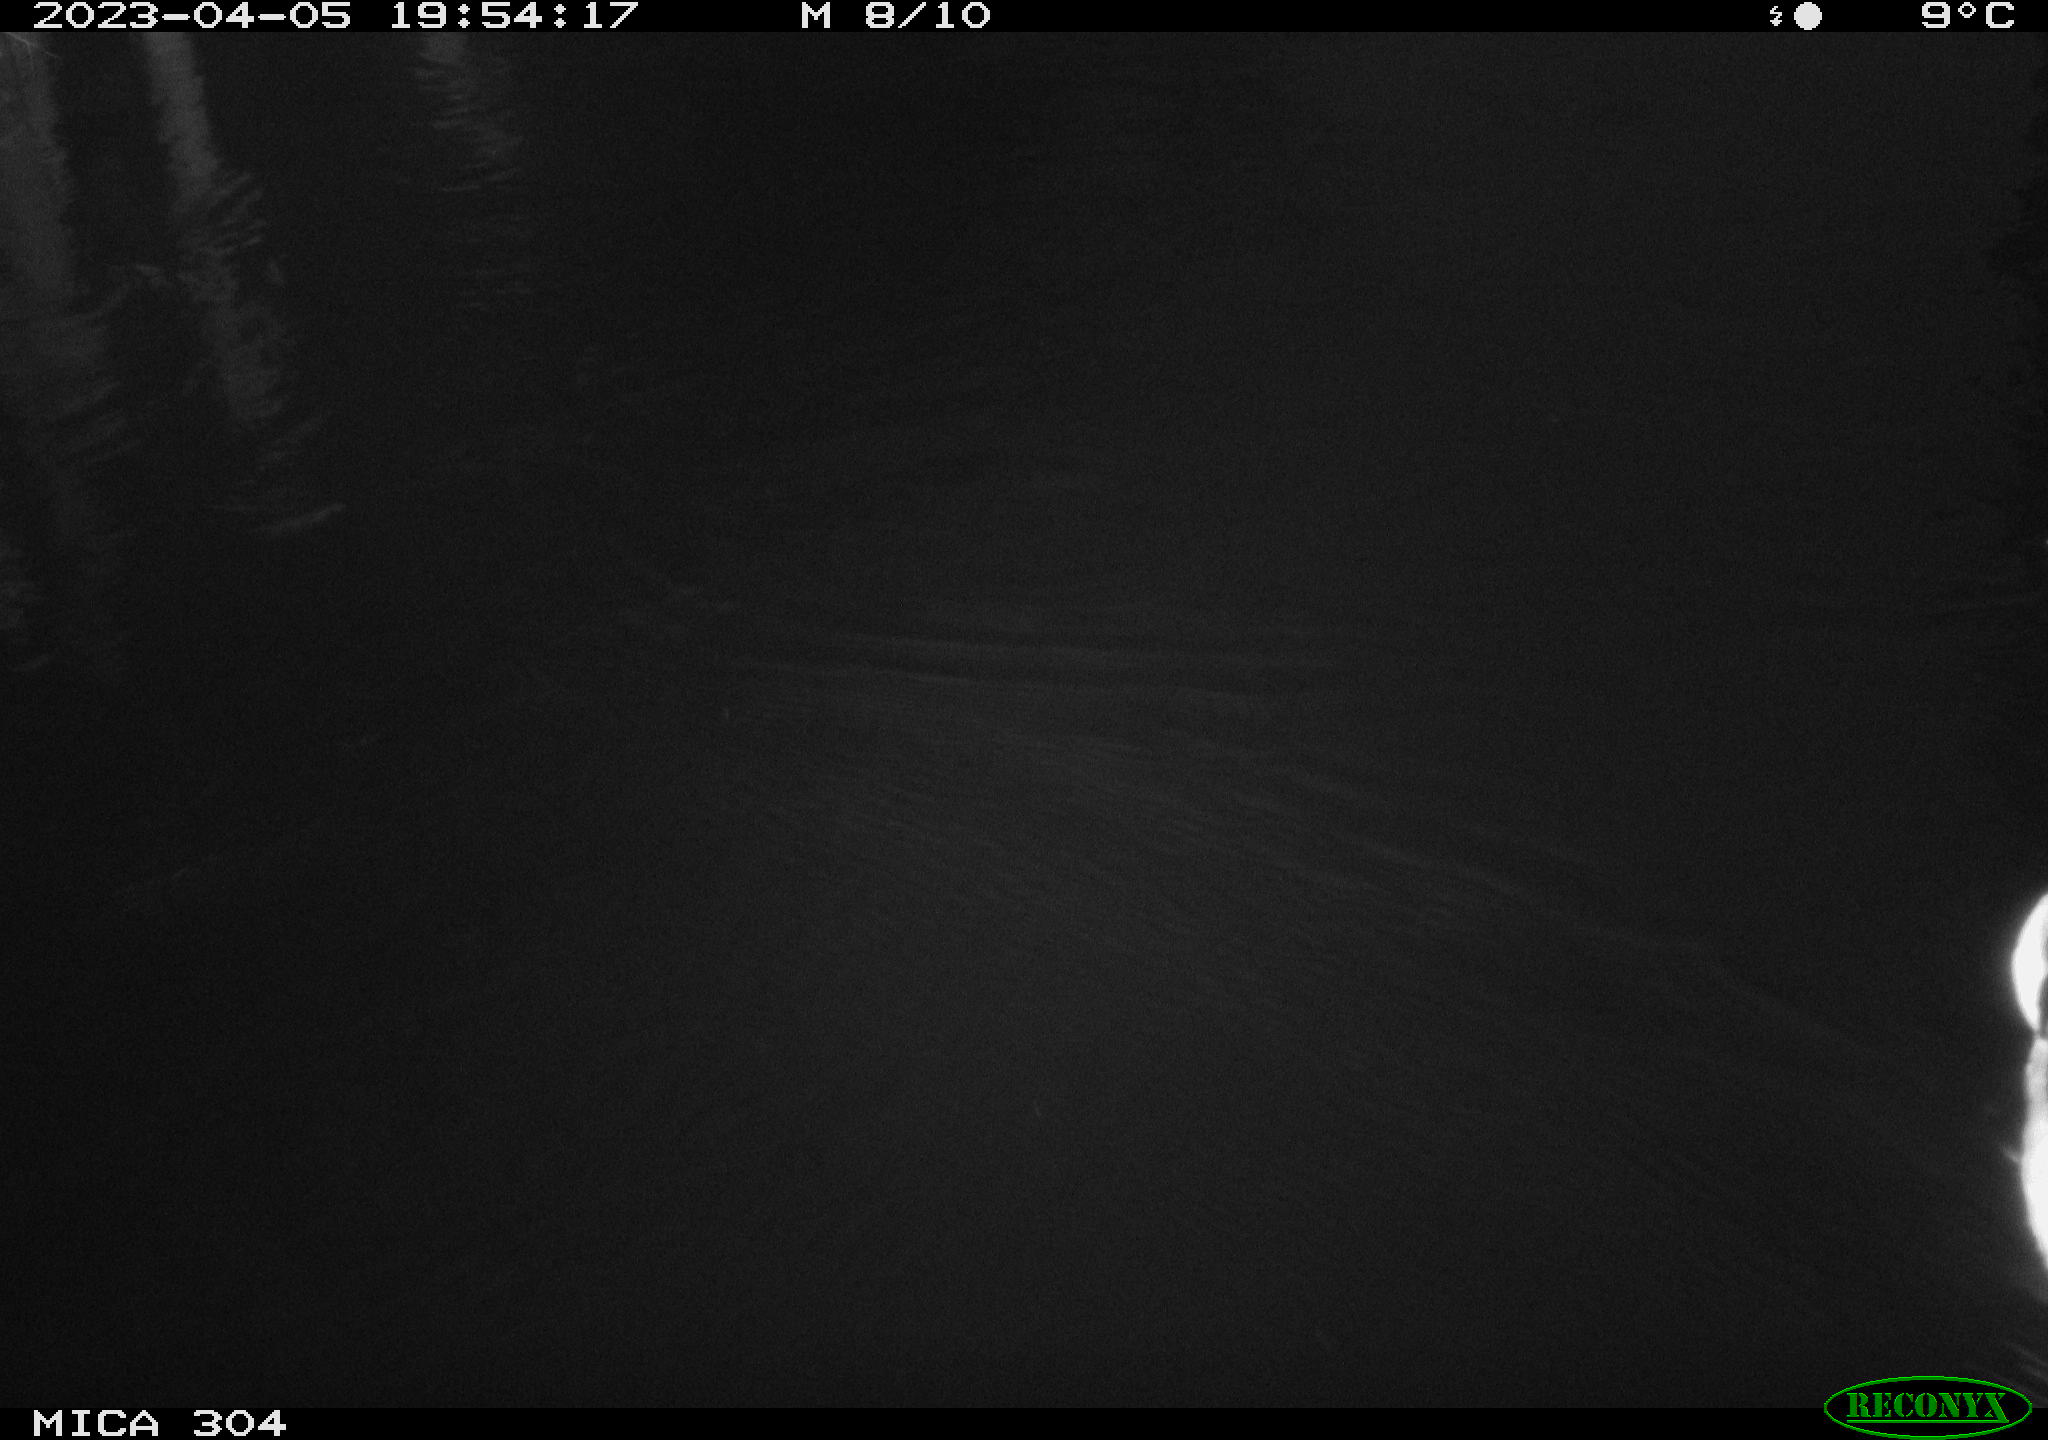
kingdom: Animalia
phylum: Chordata
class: Aves
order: Anseriformes
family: Anatidae
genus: Anas
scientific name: Anas
